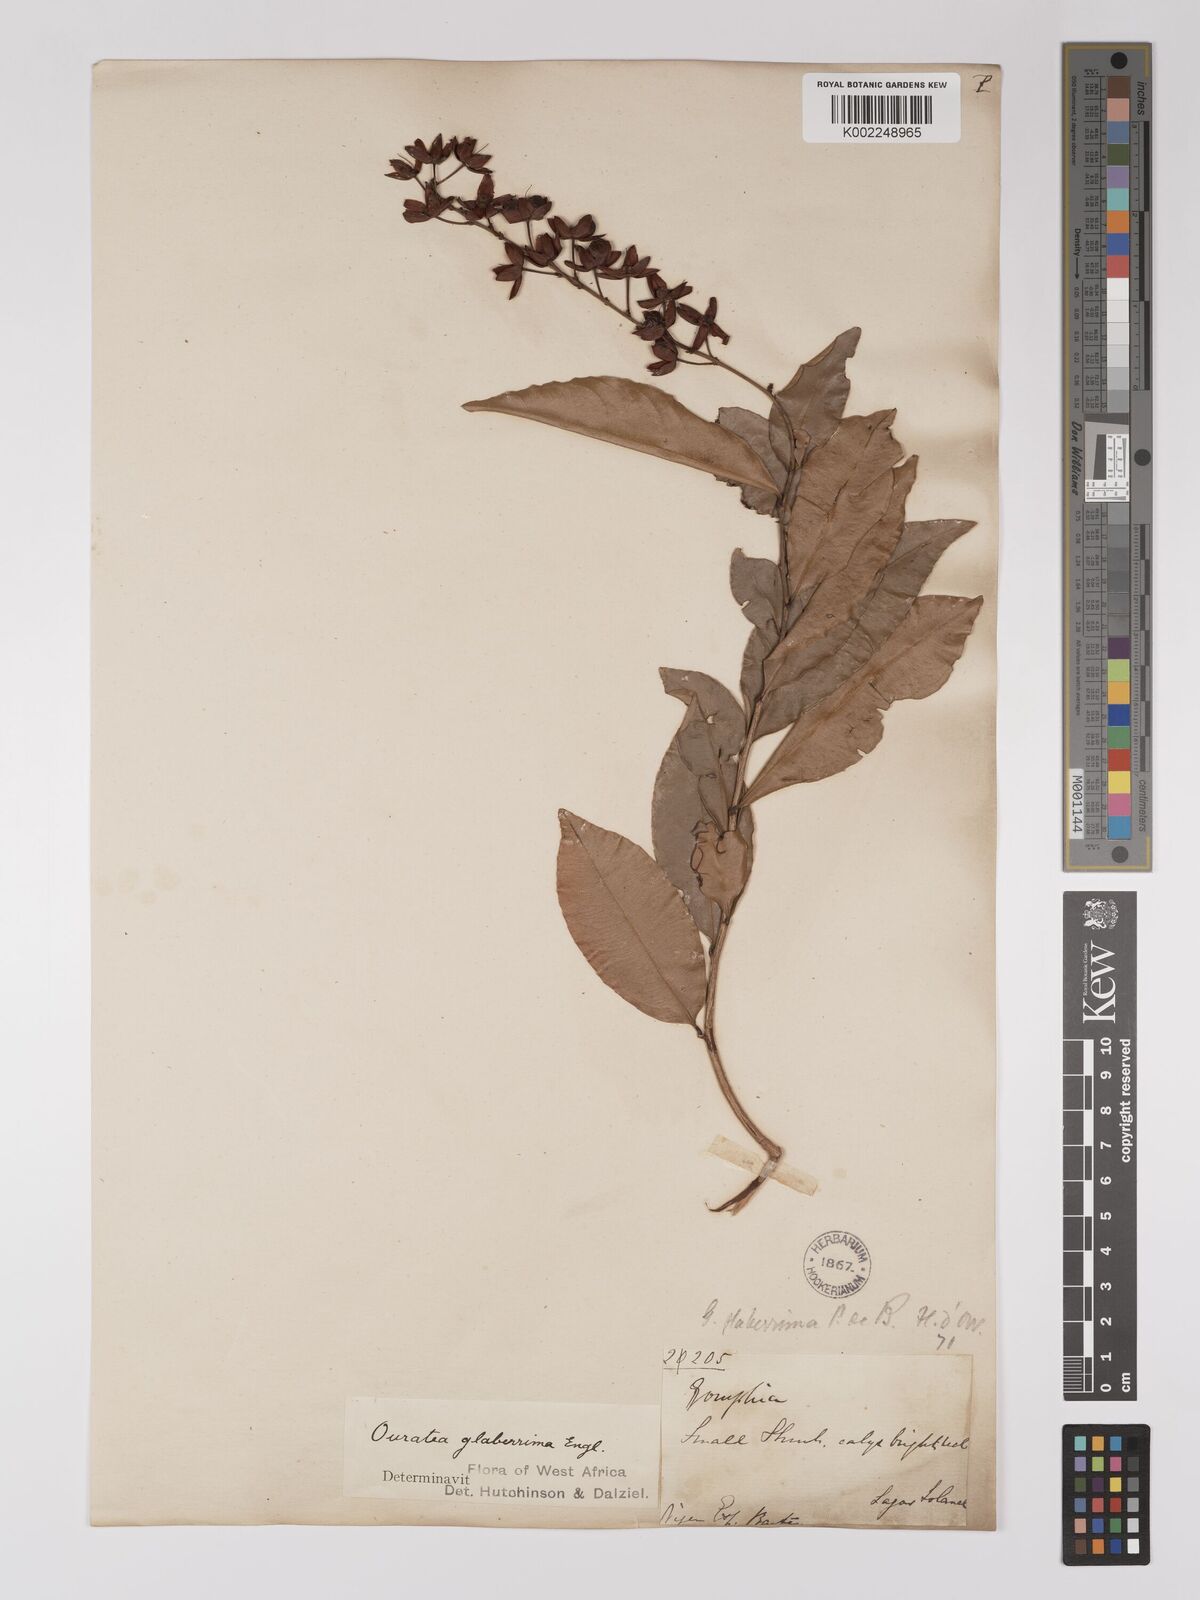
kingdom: Plantae
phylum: Tracheophyta
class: Magnoliopsida
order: Malpighiales
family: Ochnaceae
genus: Campylospermum
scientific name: Campylospermum glaberrimum
